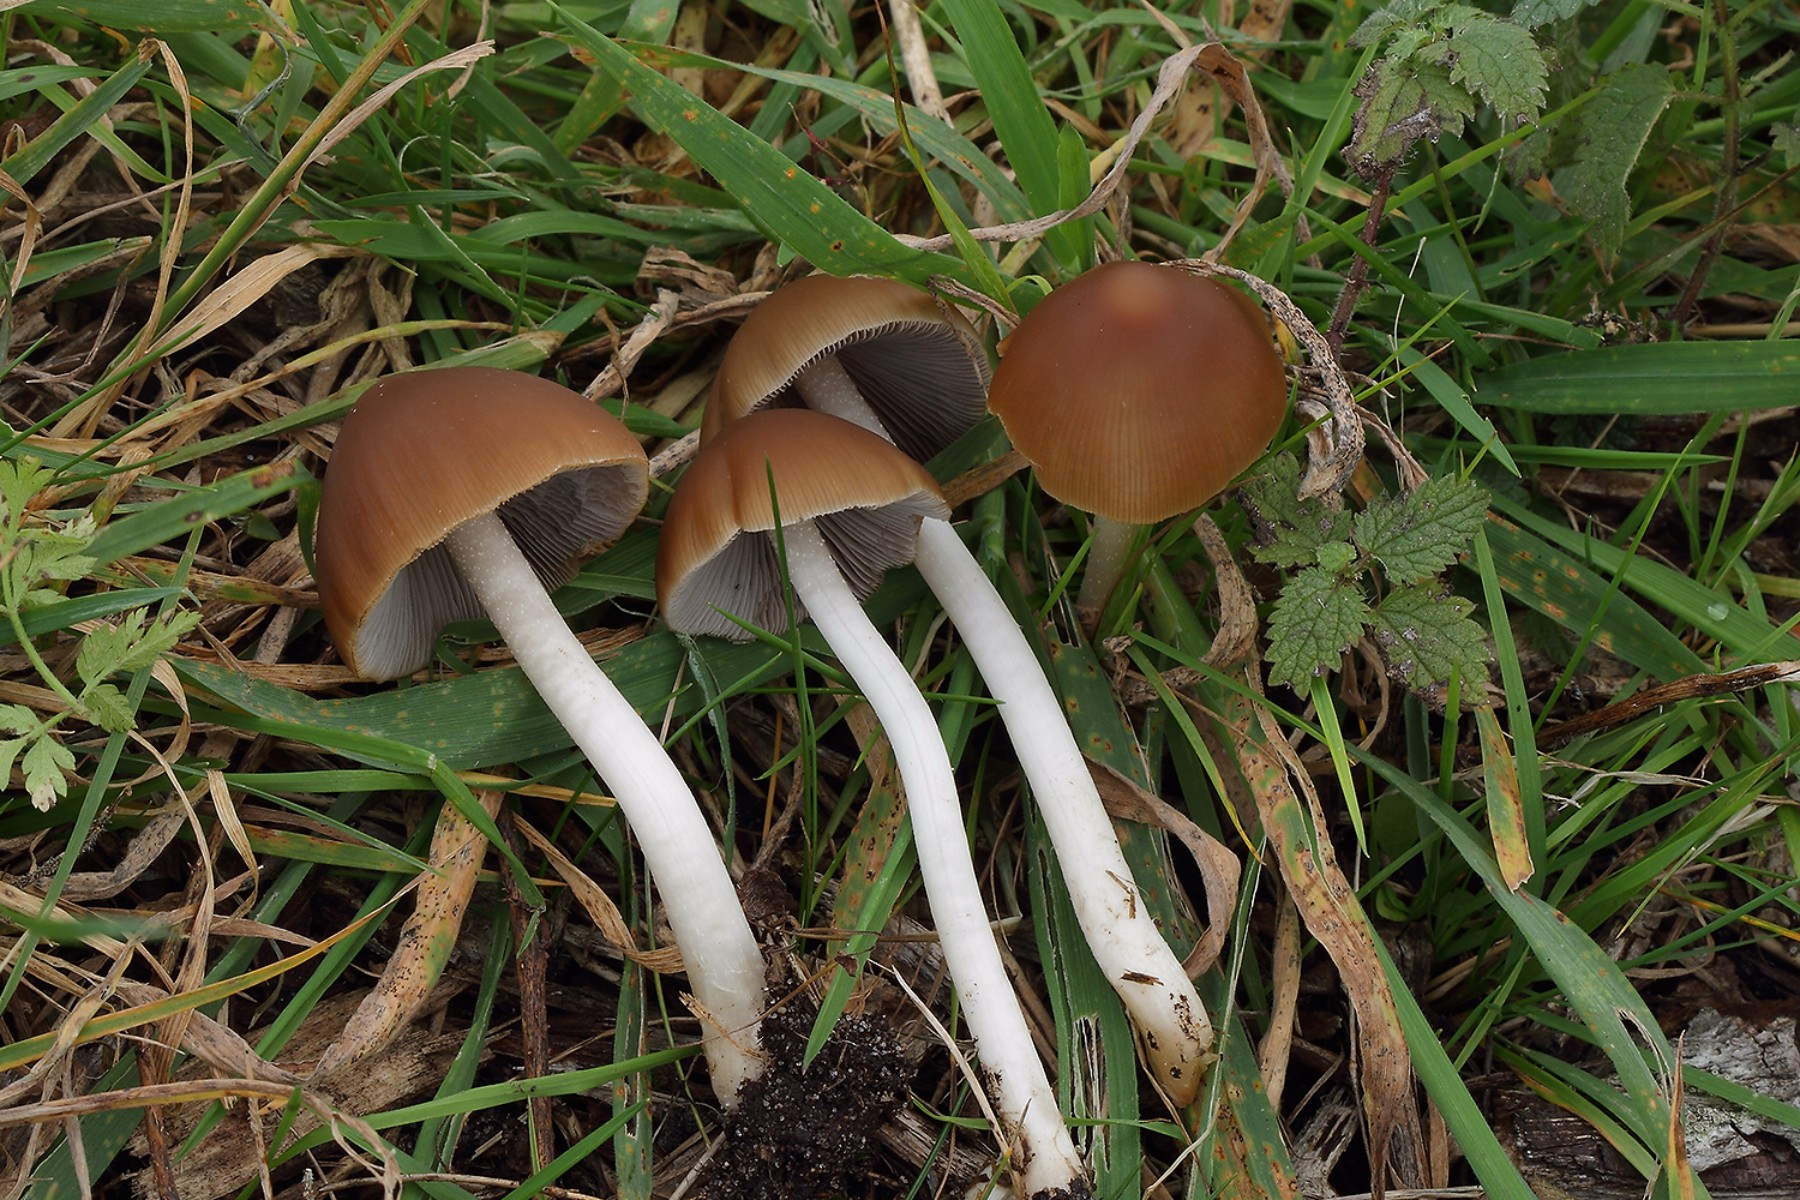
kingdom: Fungi
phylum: Basidiomycota
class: Agaricomycetes
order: Agaricales
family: Psathyrellaceae
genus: Psathyrella
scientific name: Psathyrella fusca
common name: gråbladet mørkhat
